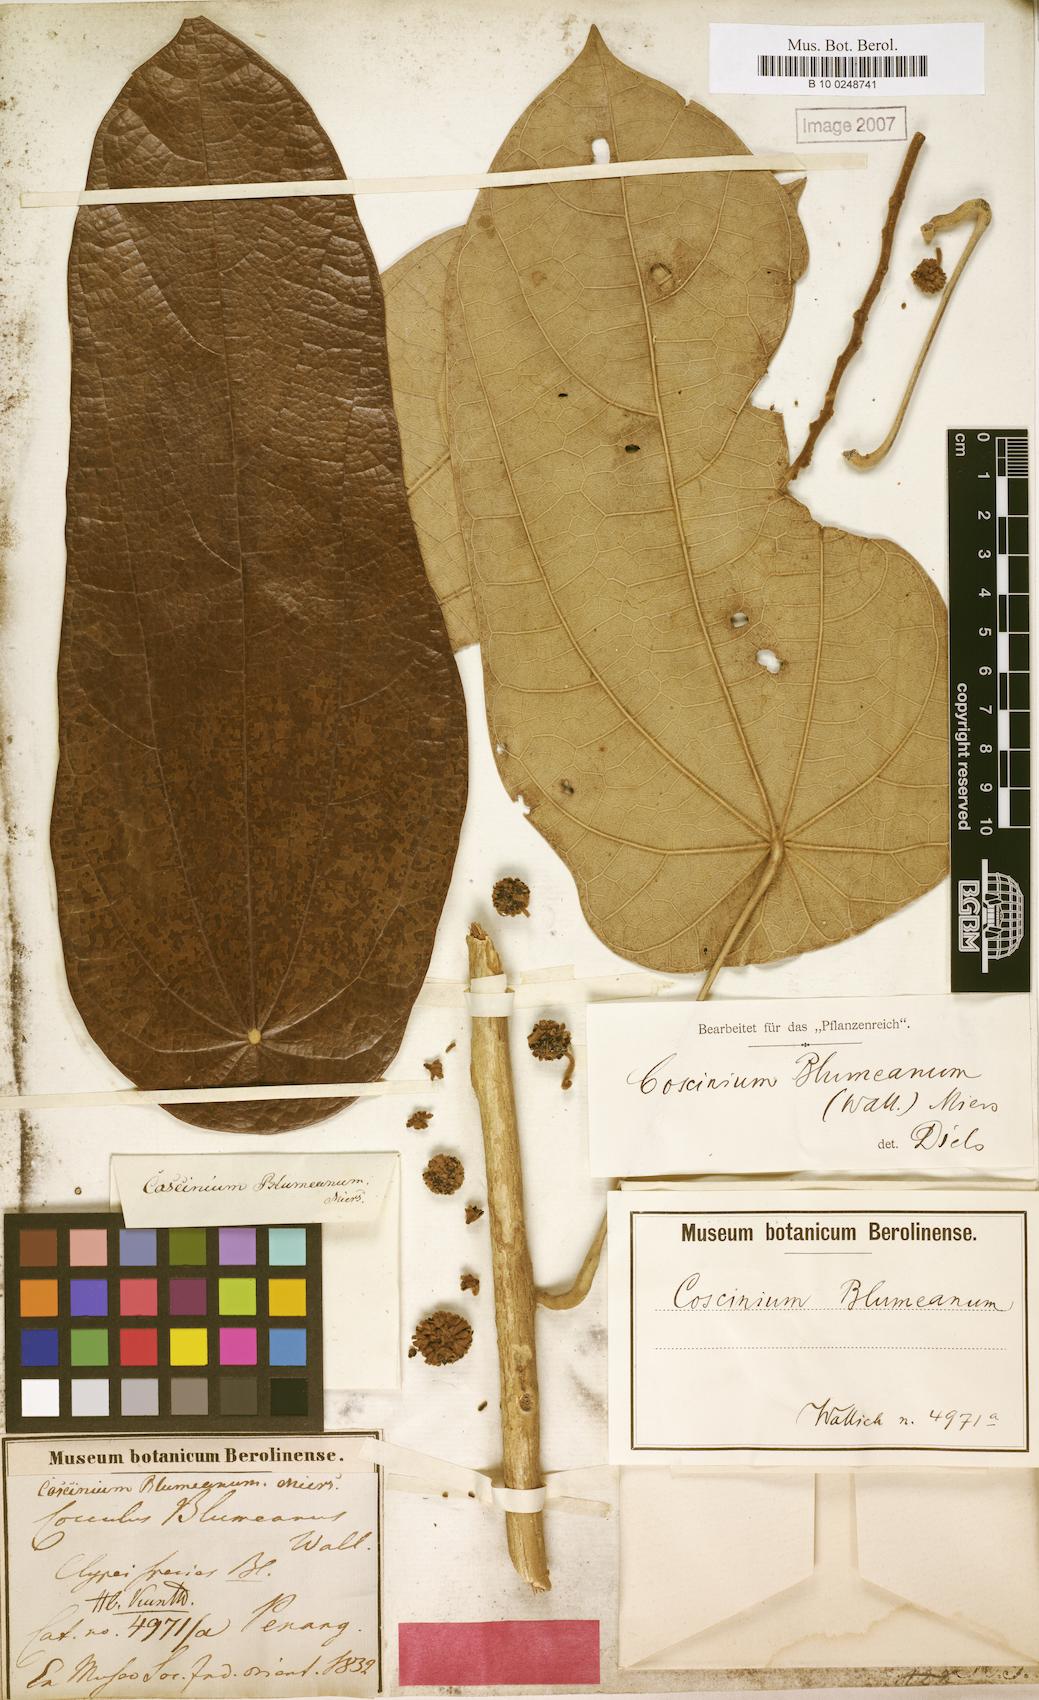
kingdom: Plantae
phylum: Tracheophyta
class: Magnoliopsida
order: Ranunculales
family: Menispermaceae
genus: Coscinium
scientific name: Coscinium blumeanum
